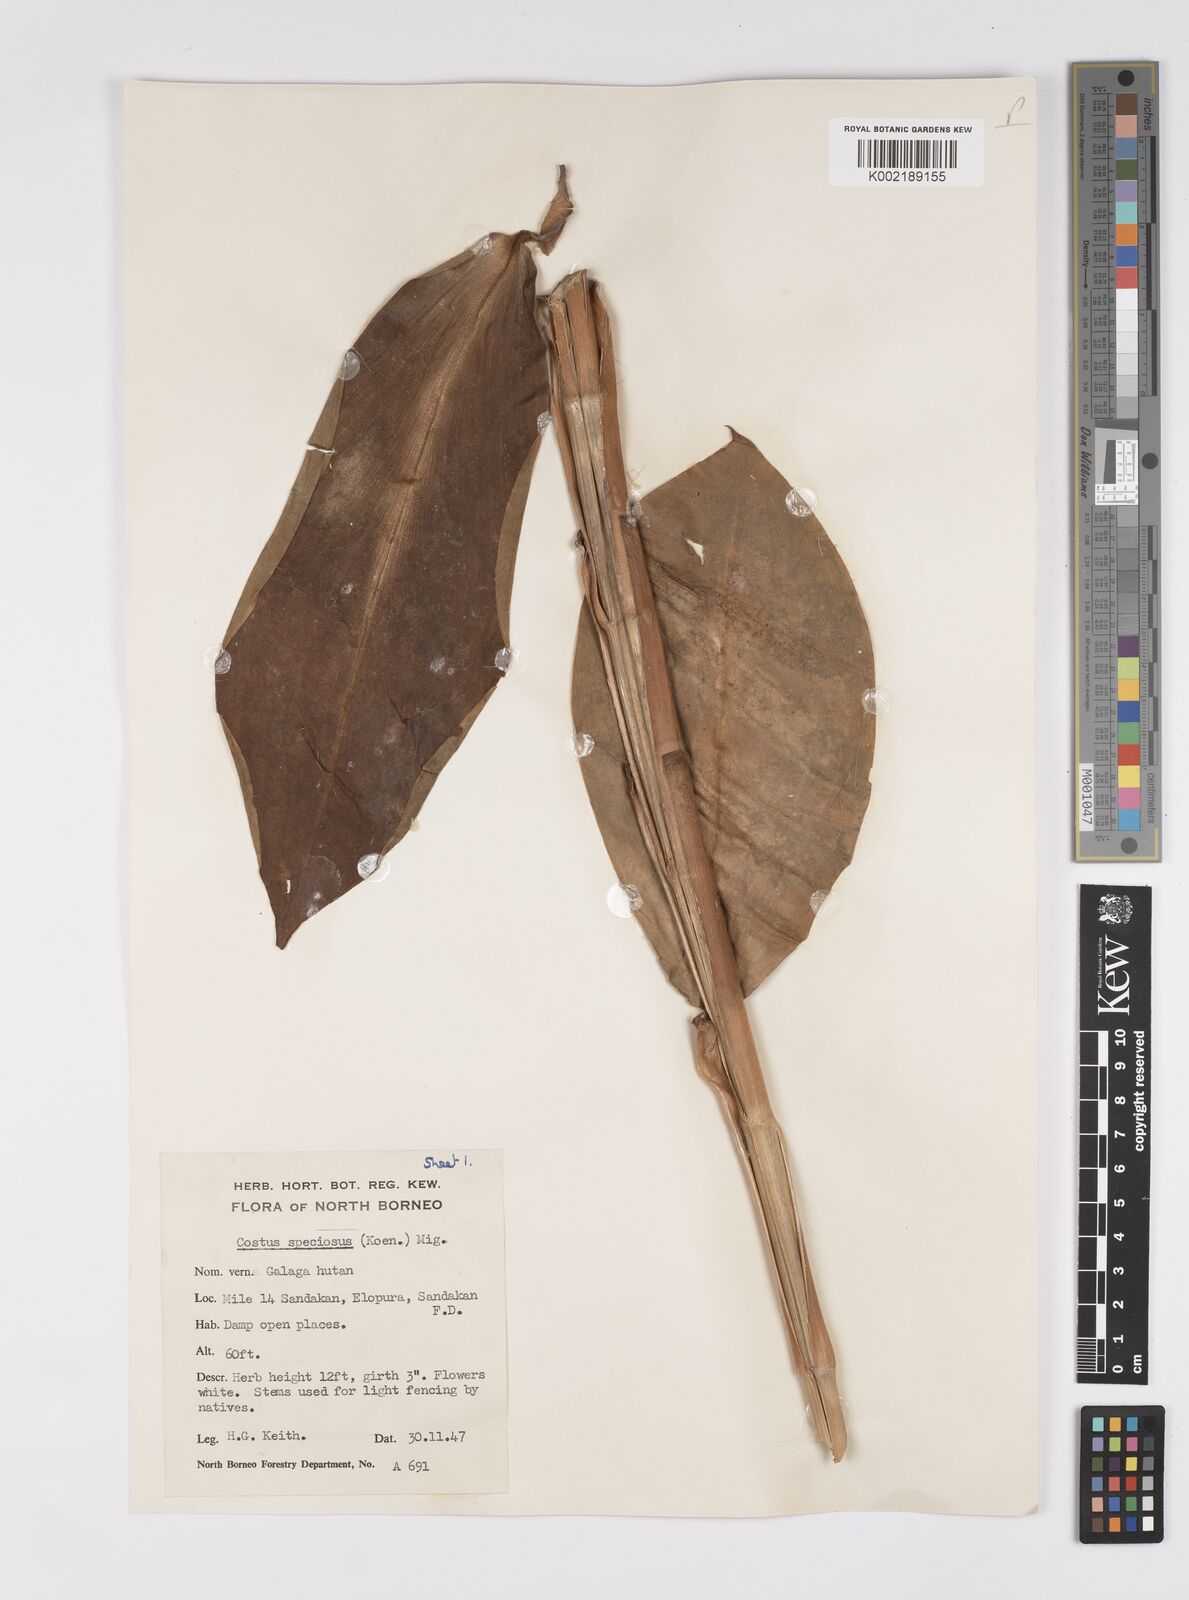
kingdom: Plantae
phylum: Tracheophyta
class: Liliopsida
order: Zingiberales
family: Costaceae
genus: Hellenia
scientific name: Hellenia speciosa
